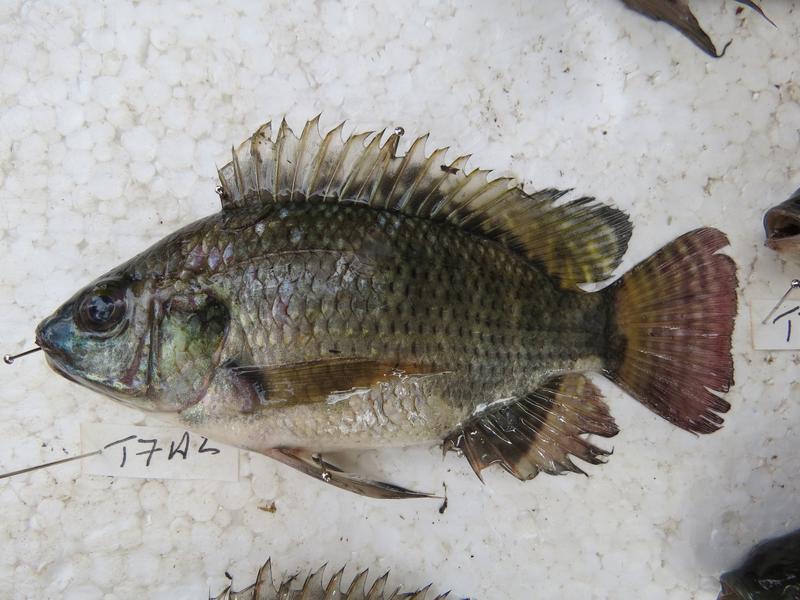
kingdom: Animalia
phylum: Chordata
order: Perciformes
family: Cichlidae
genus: Oreochromis
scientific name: Oreochromis niloticus
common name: Nile tilapia
